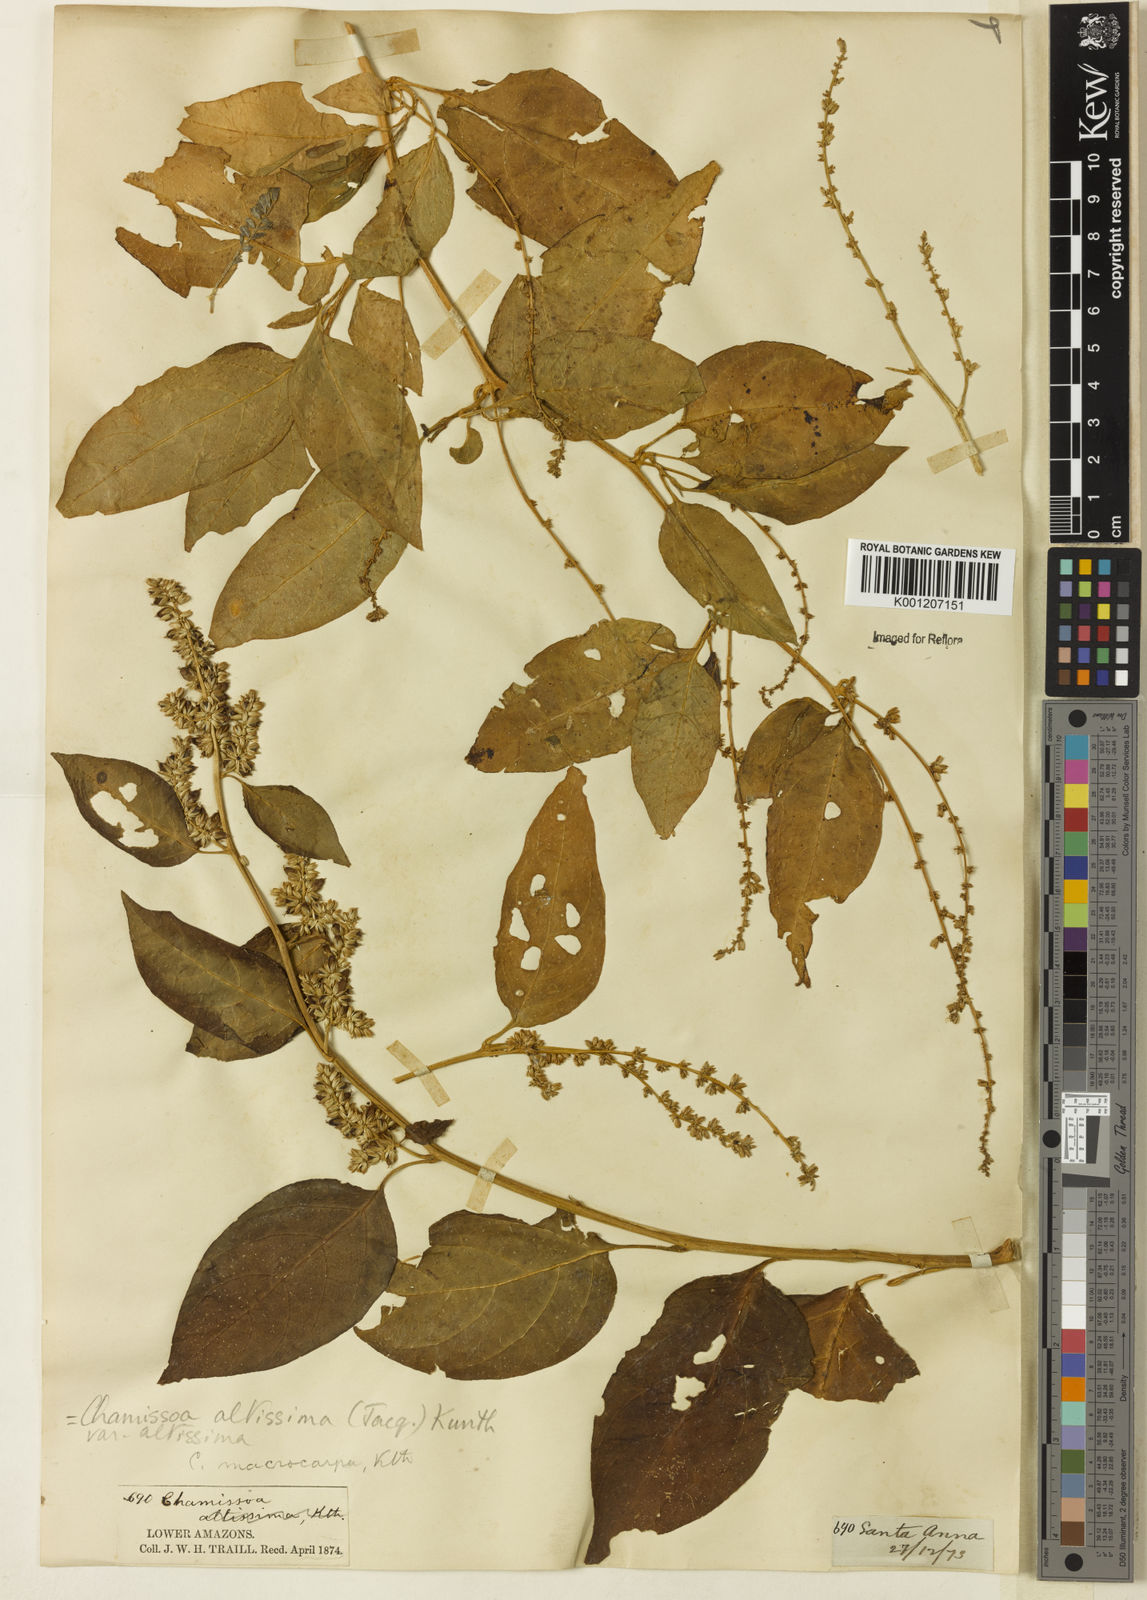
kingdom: Plantae
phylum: Tracheophyta
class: Magnoliopsida
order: Caryophyllales
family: Amaranthaceae
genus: Chamissoa
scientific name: Chamissoa altissima
